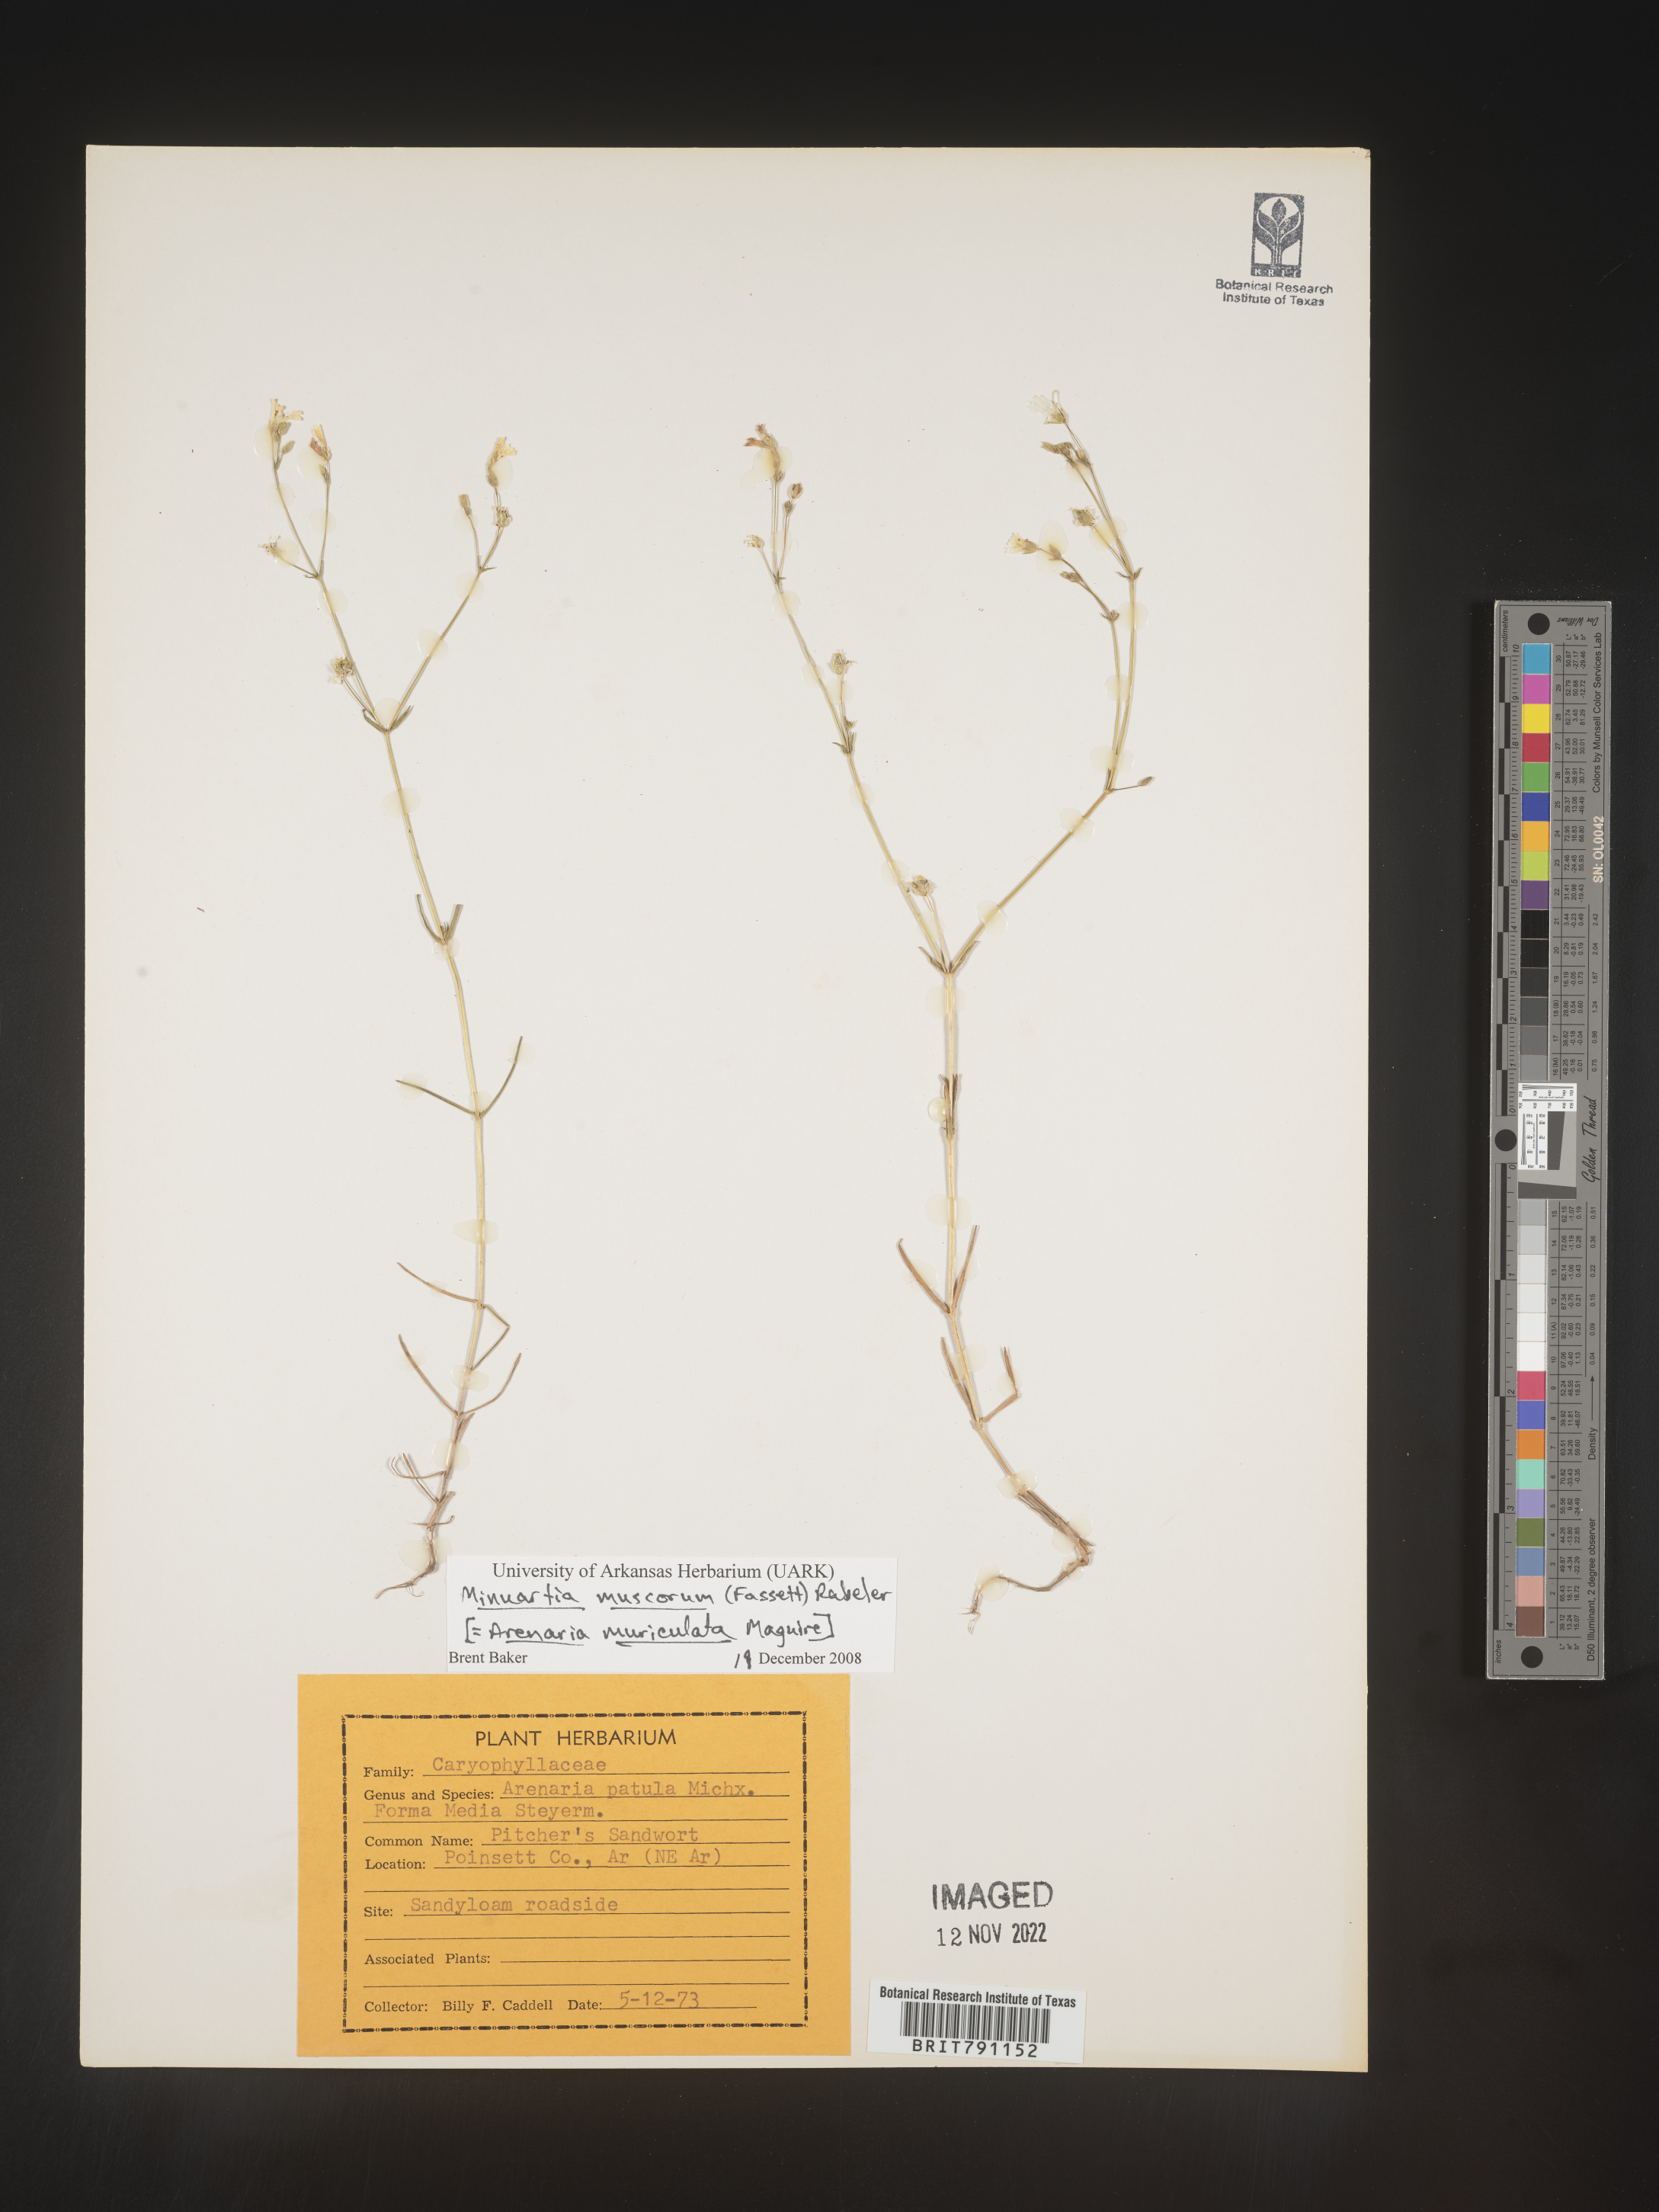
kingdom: Plantae
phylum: Tracheophyta
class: Magnoliopsida
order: Caryophyllales
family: Caryophyllaceae
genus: Mononeuria
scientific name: Mononeuria muscorum
